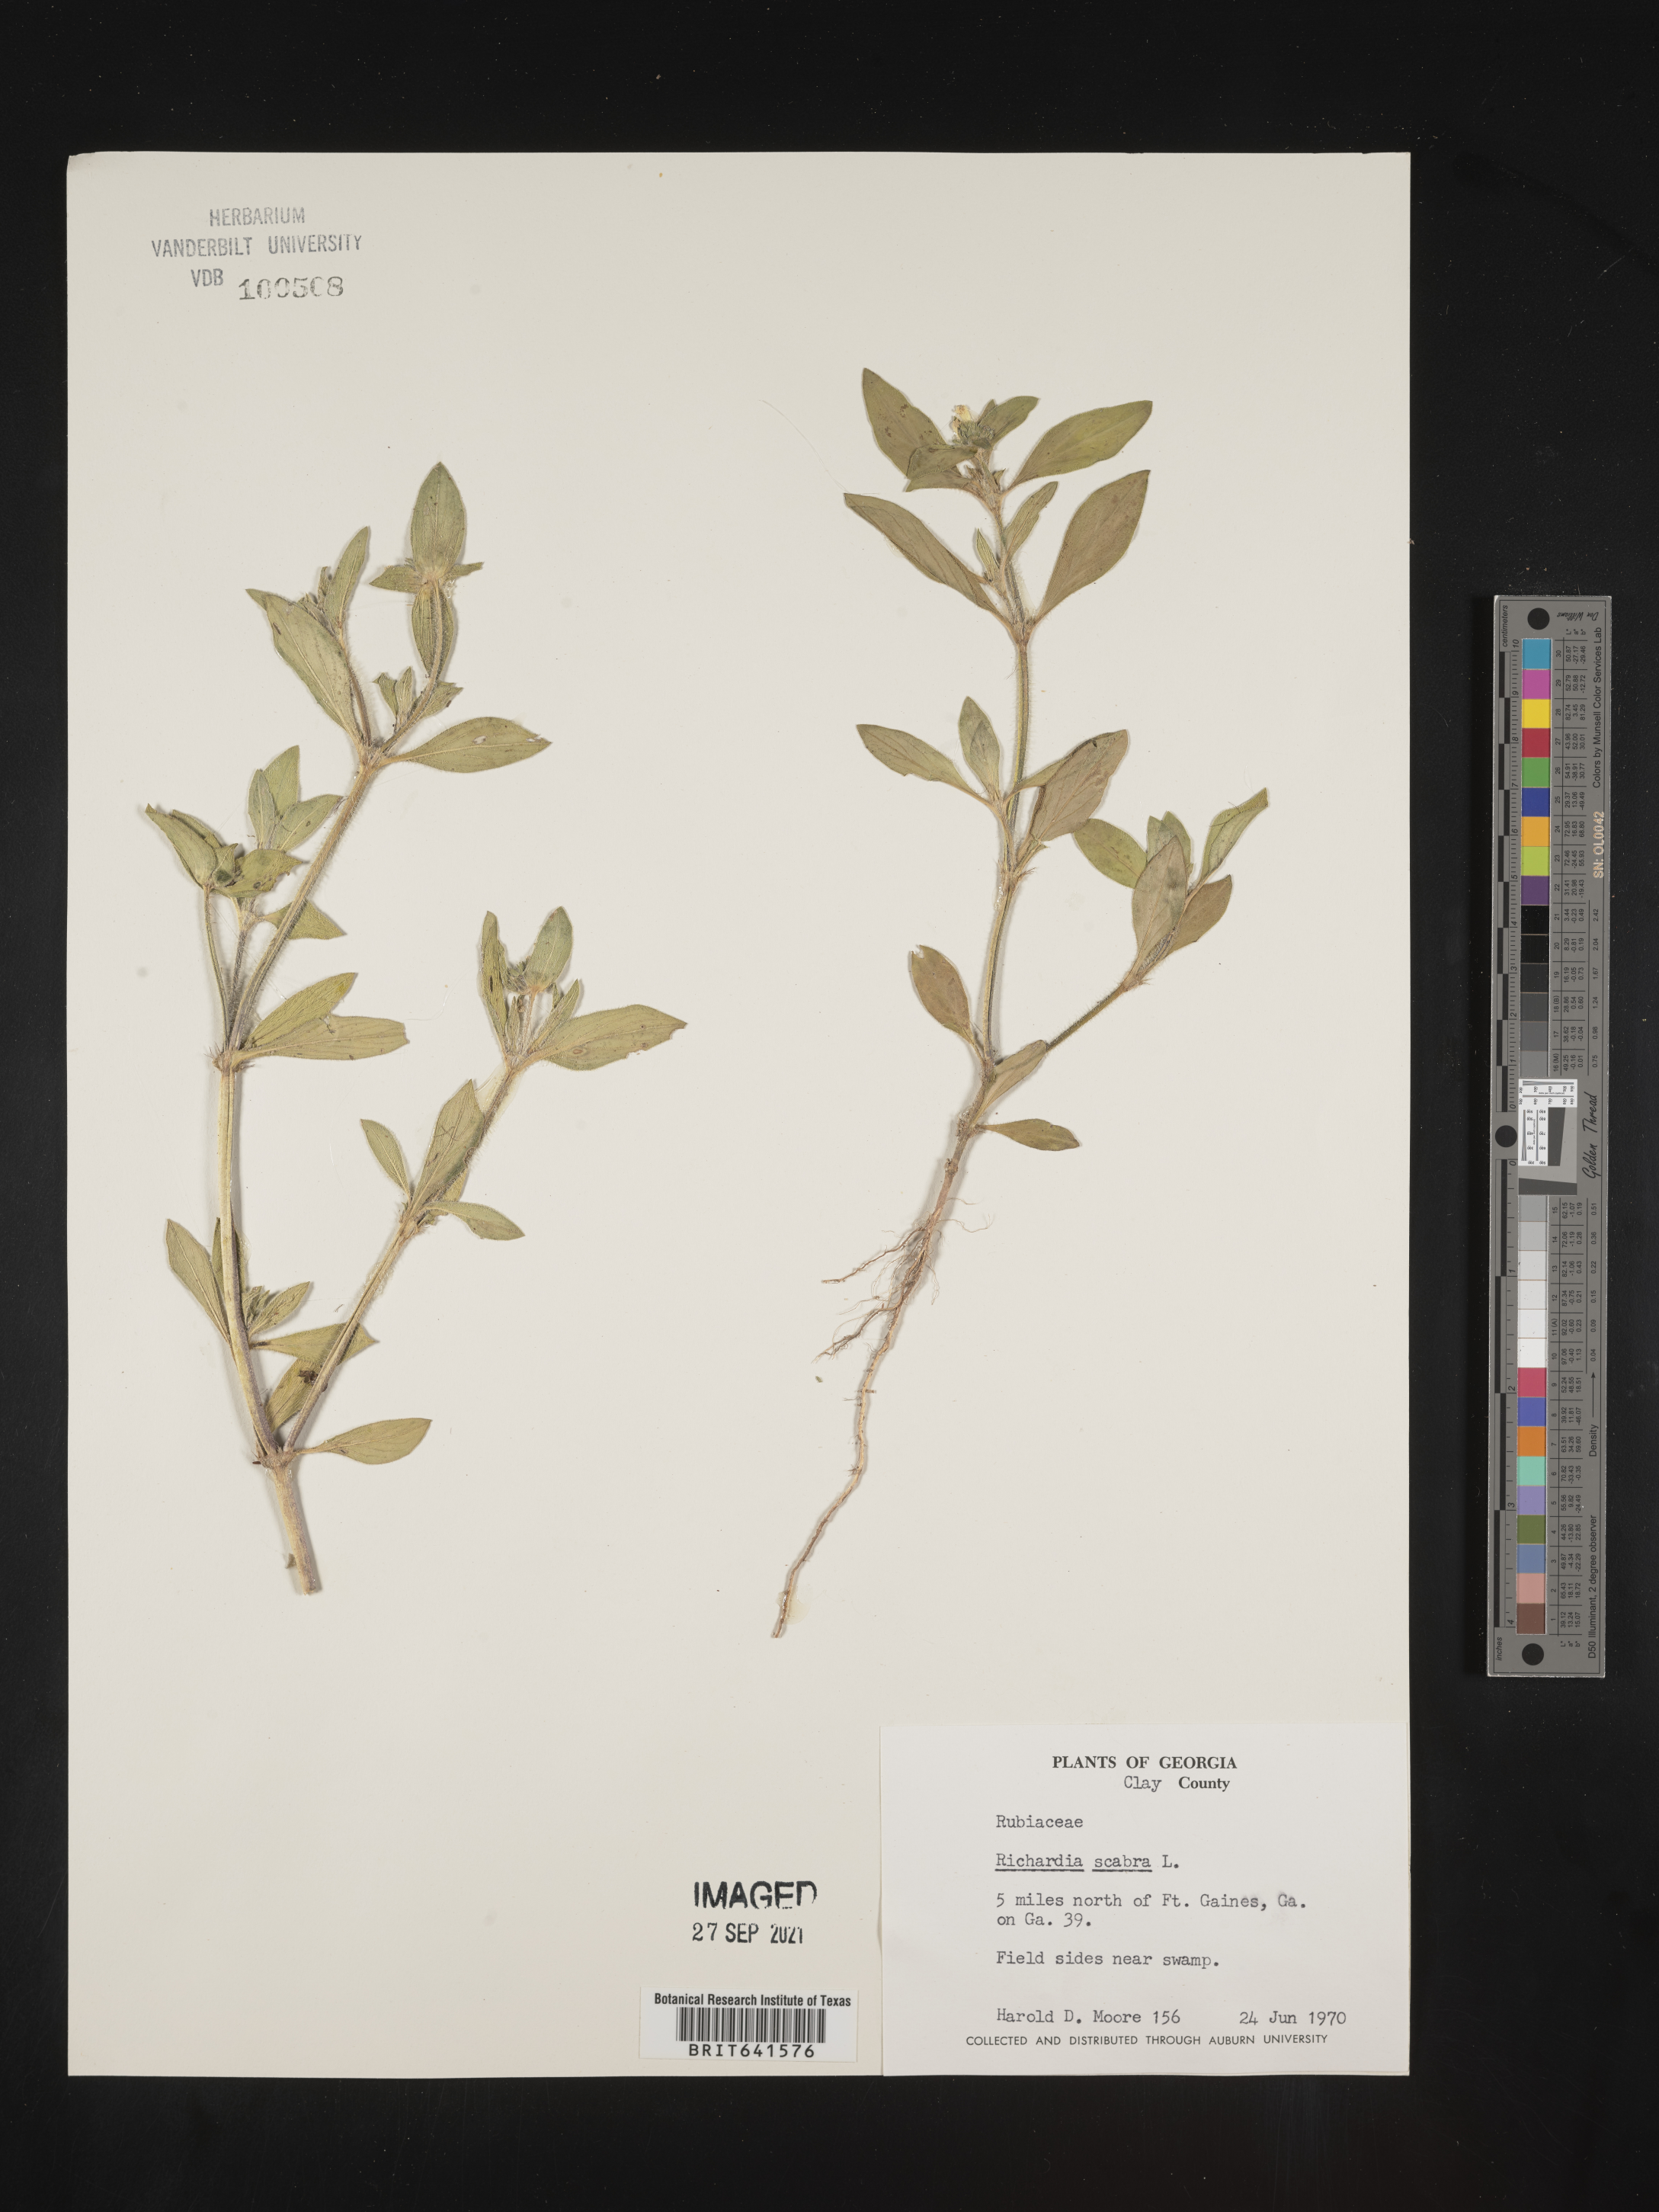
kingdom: Plantae
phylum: Tracheophyta
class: Magnoliopsida
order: Gentianales
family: Rubiaceae
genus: Richardia
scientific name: Richardia scabra
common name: Rough mexican clover
